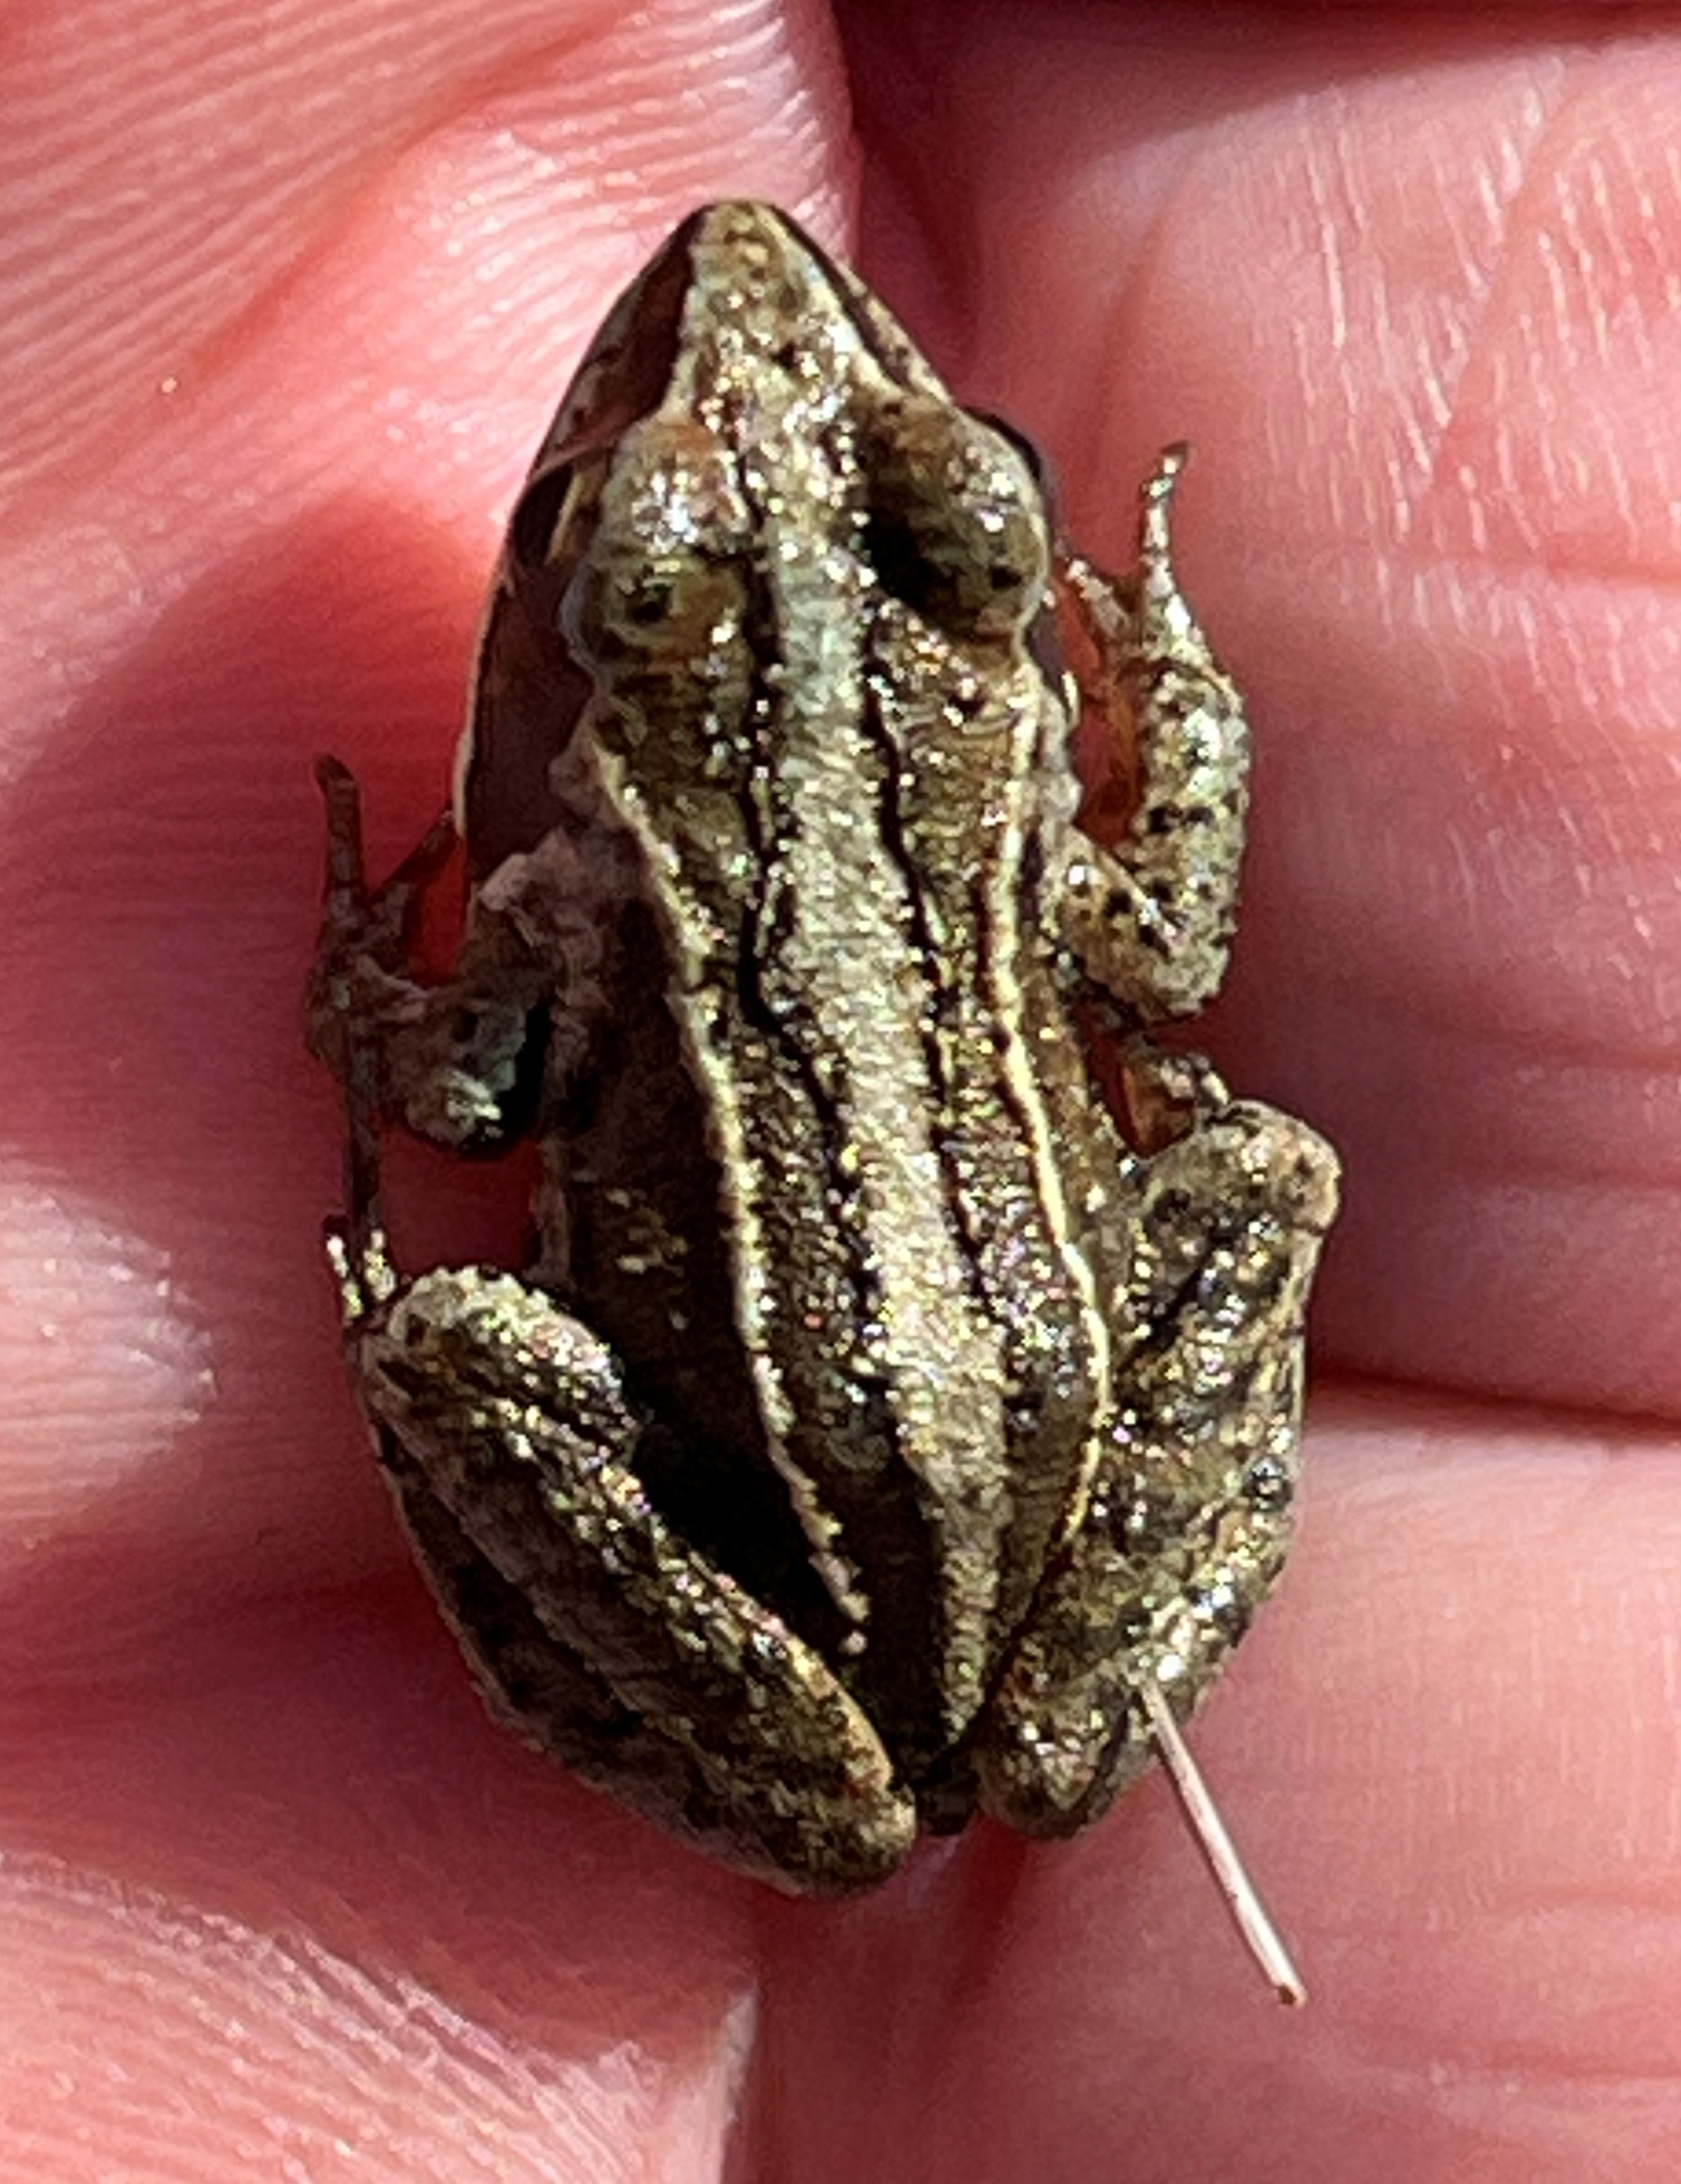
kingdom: Animalia
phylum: Chordata
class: Amphibia
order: Anura
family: Ranidae
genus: Rana
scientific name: Rana arvalis
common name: Spidssnudet frø
